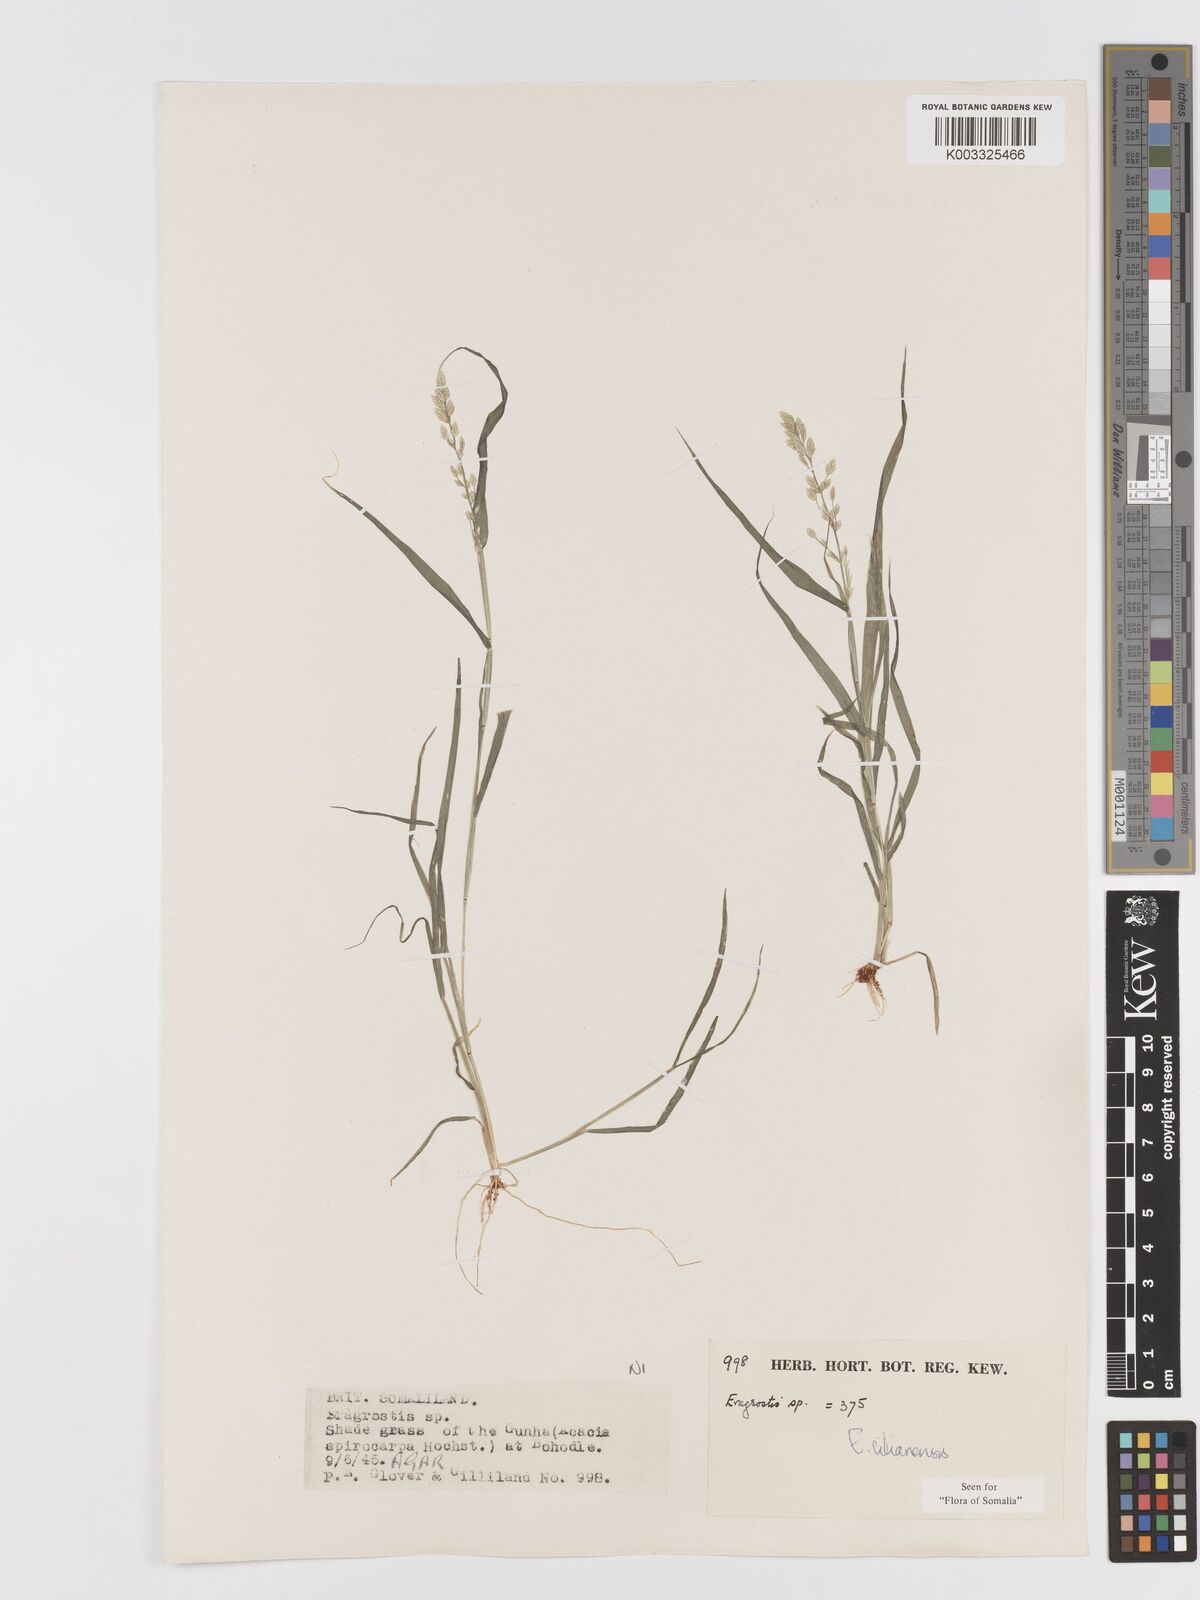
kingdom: Plantae
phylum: Tracheophyta
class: Liliopsida
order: Poales
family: Poaceae
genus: Eragrostis
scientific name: Eragrostis cilianensis
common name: Stinkgrass
